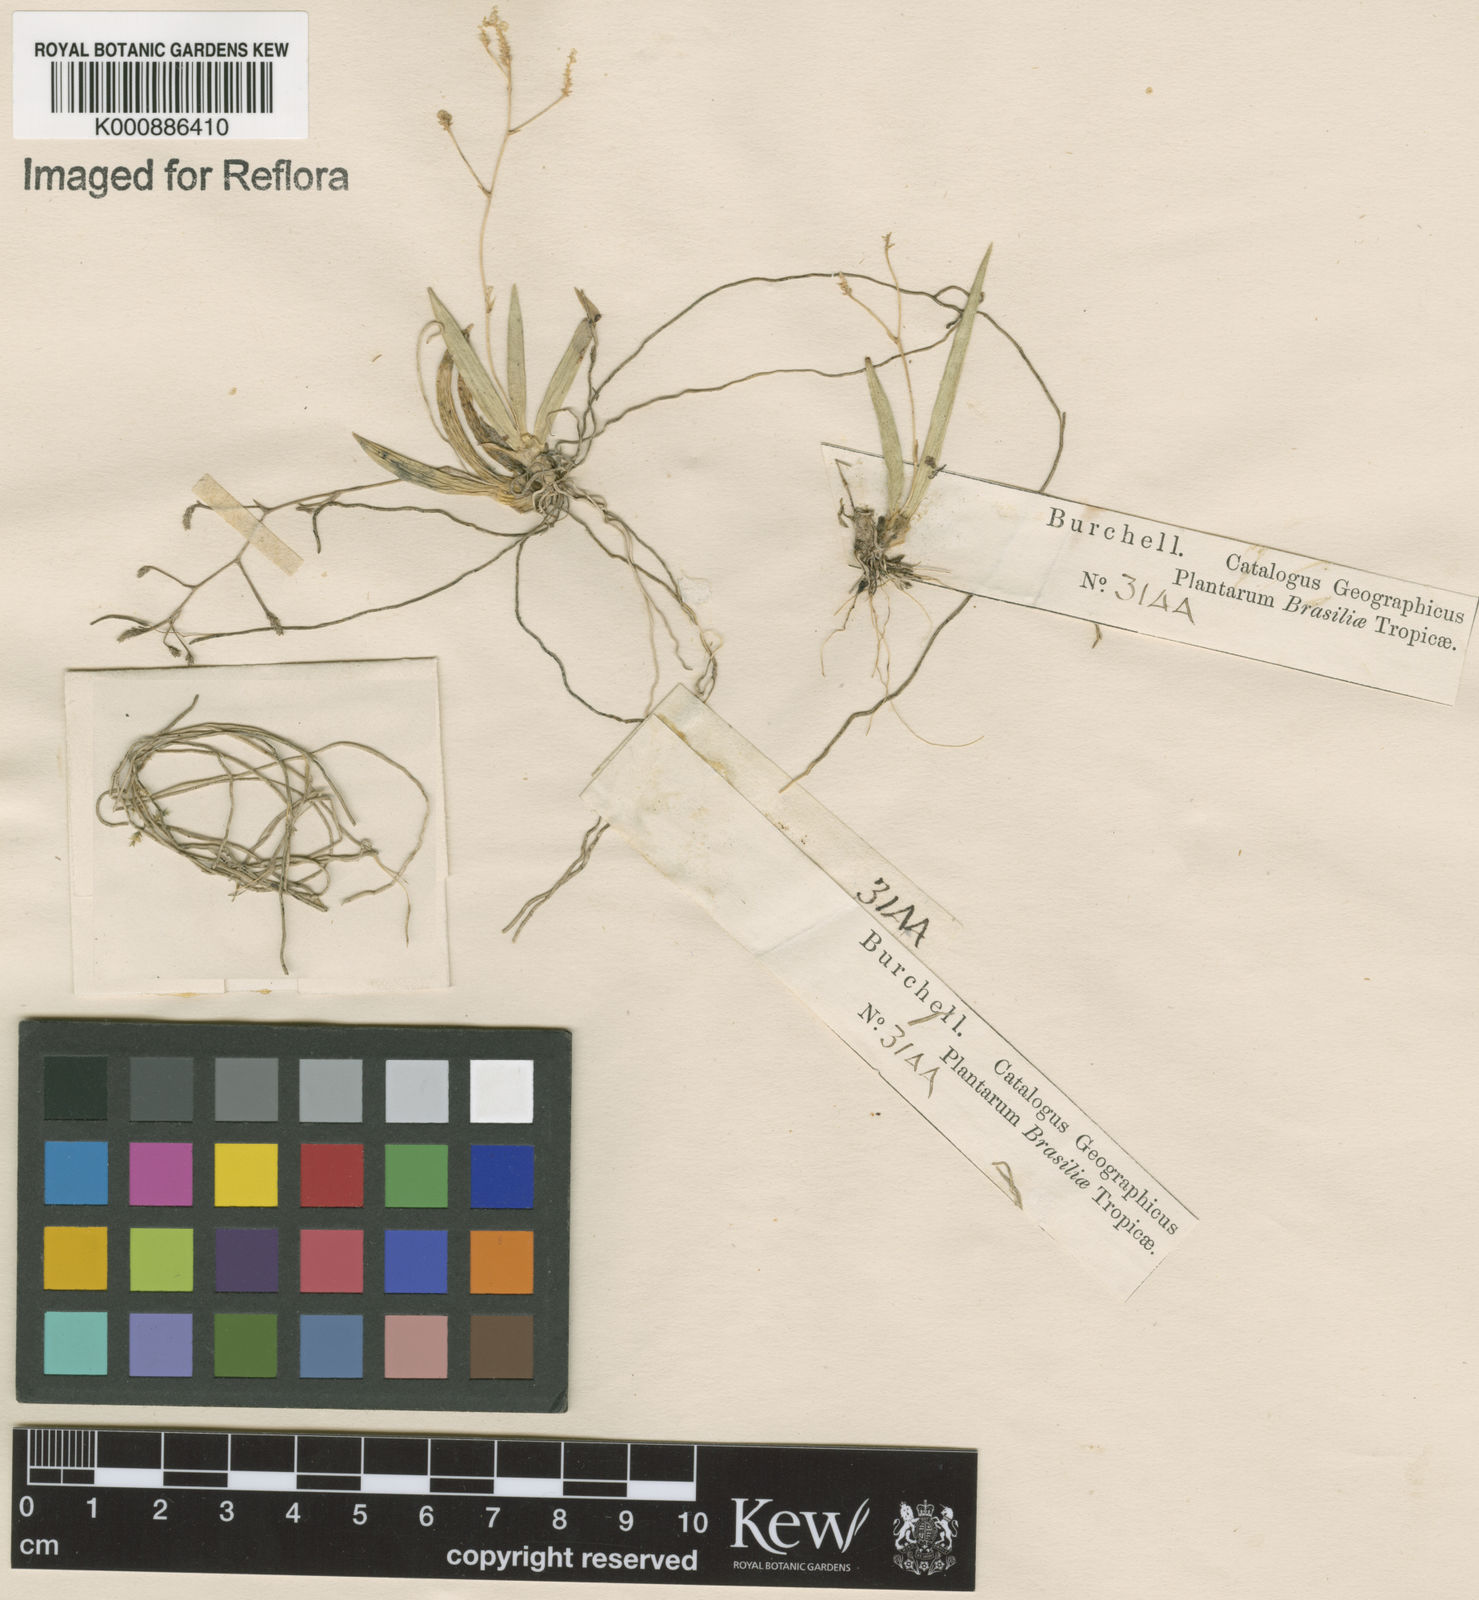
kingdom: Plantae
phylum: Tracheophyta
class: Liliopsida
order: Asparagales
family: Orchidaceae
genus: Trizeuxis
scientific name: Trizeuxis falcata
